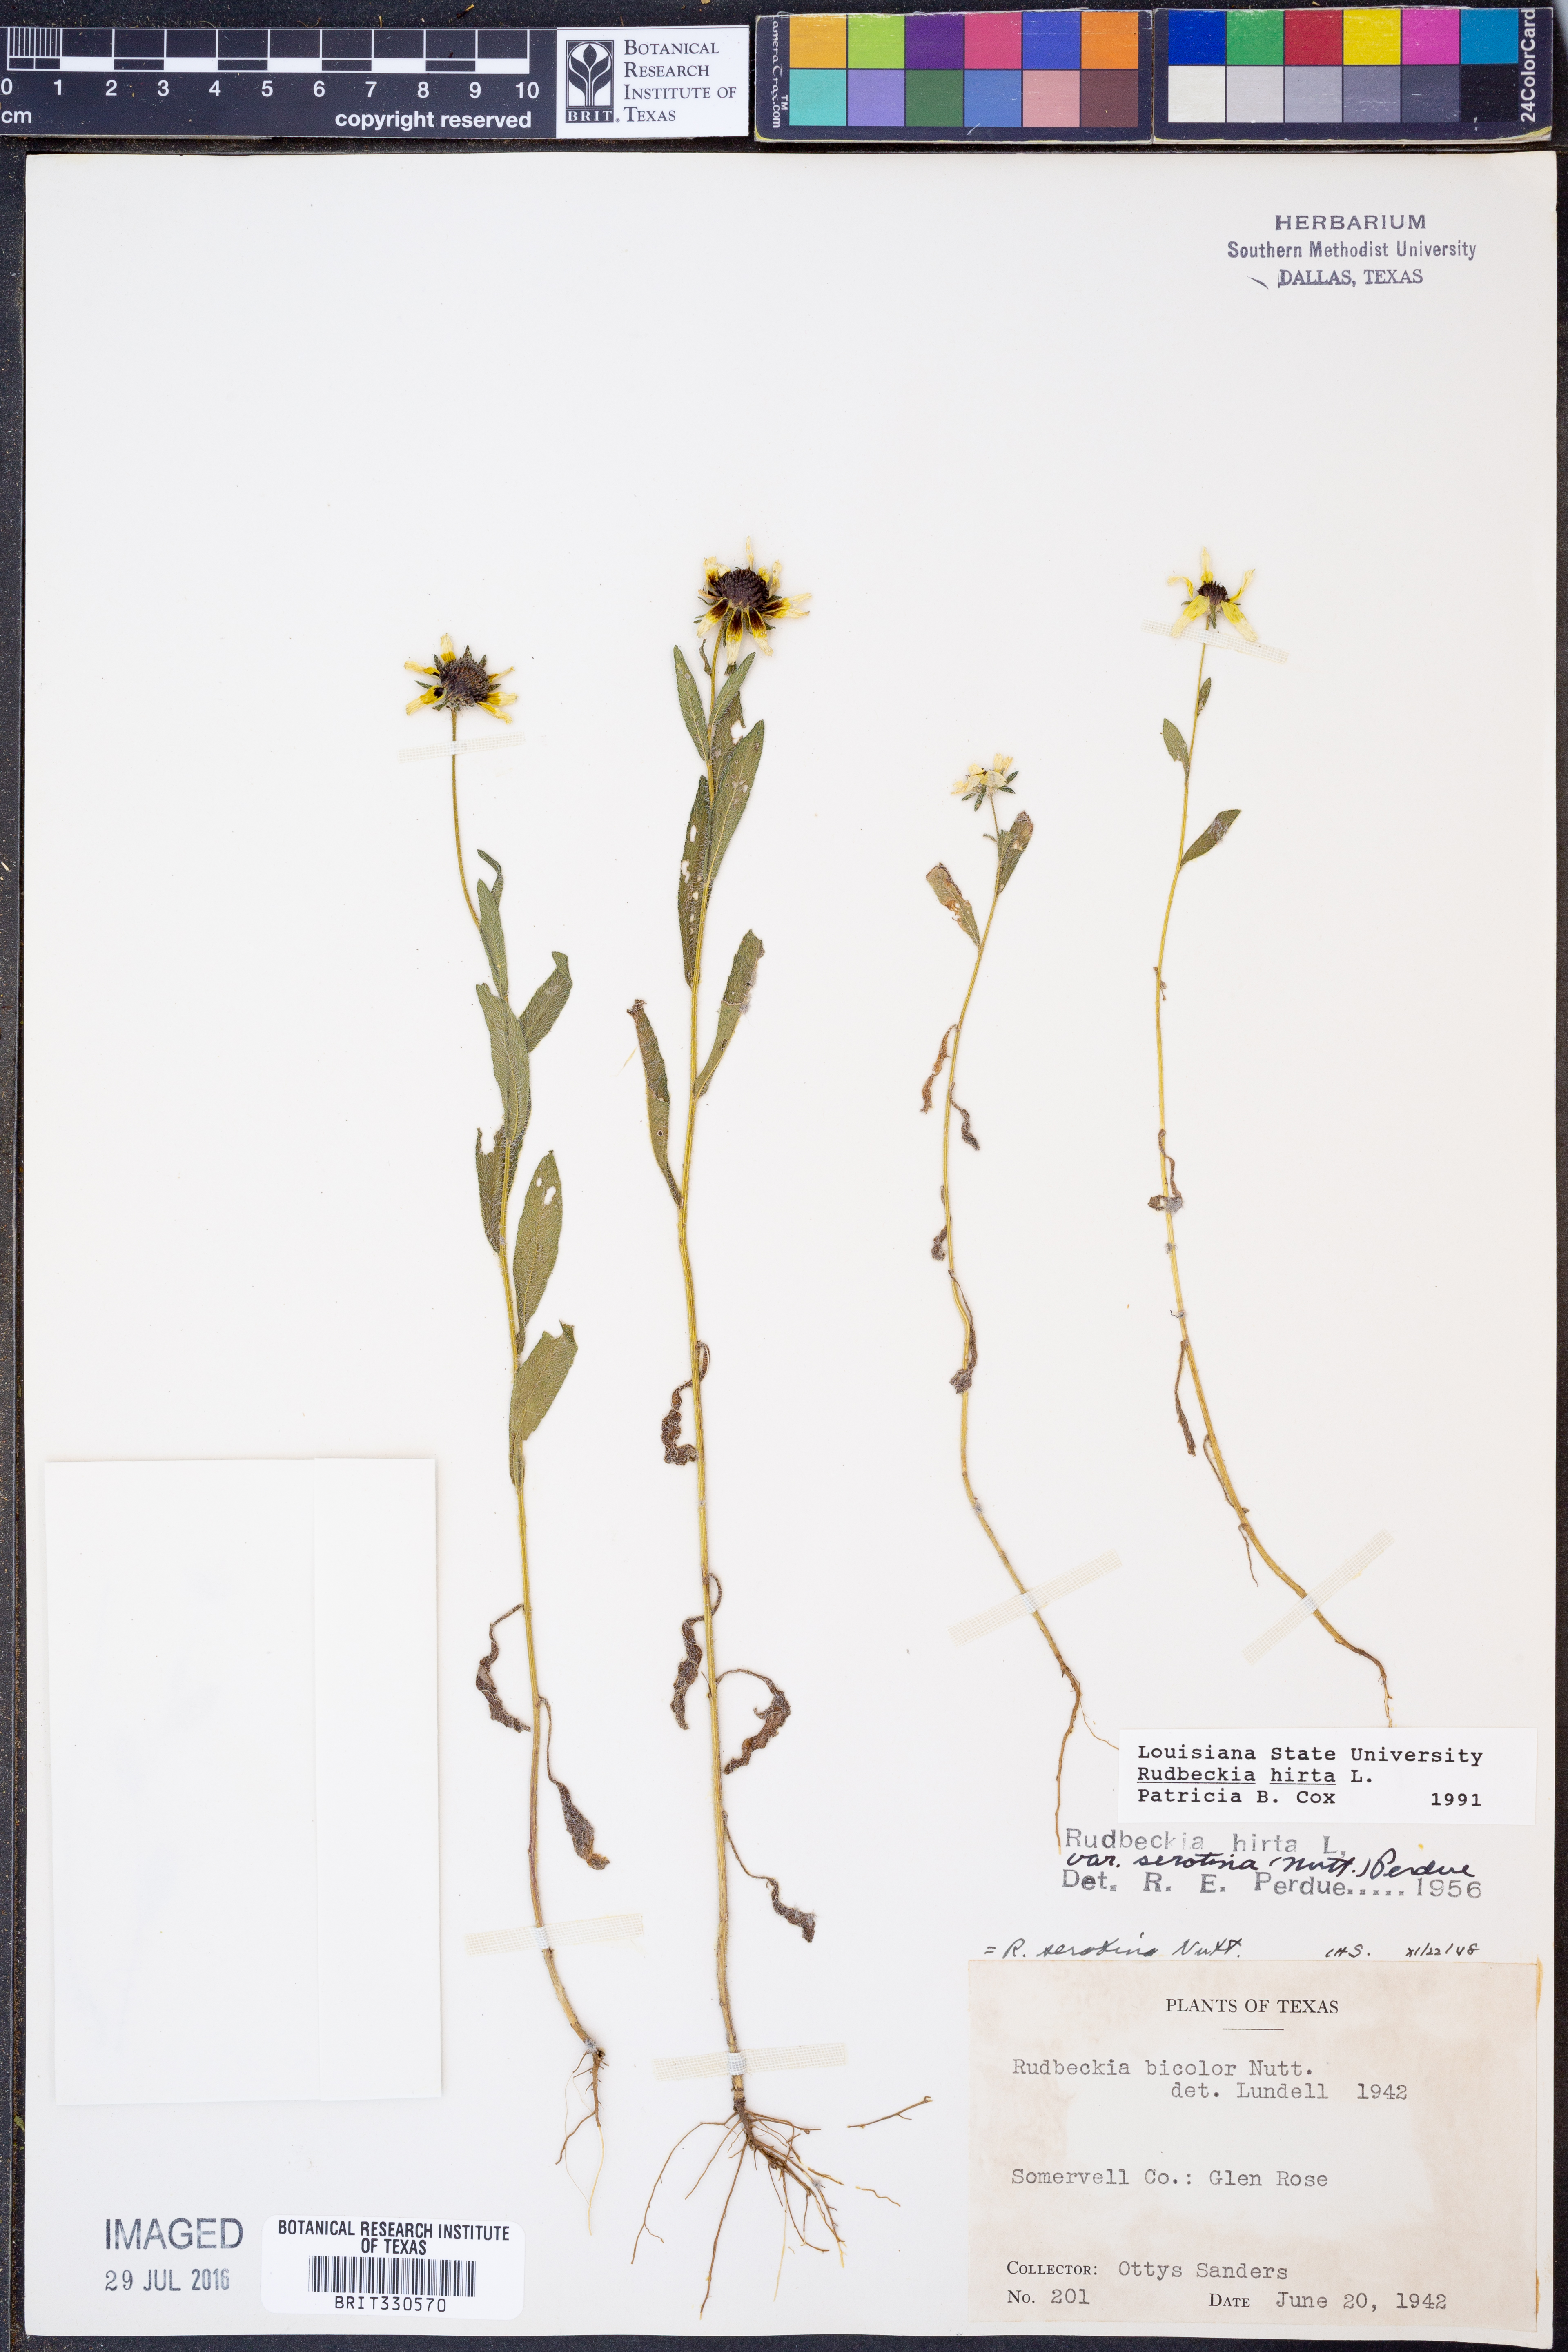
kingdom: Plantae
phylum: Tracheophyta
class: Magnoliopsida
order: Asterales
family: Asteraceae
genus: Rudbeckia
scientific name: Rudbeckia hirta
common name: Black-eyed-susan
